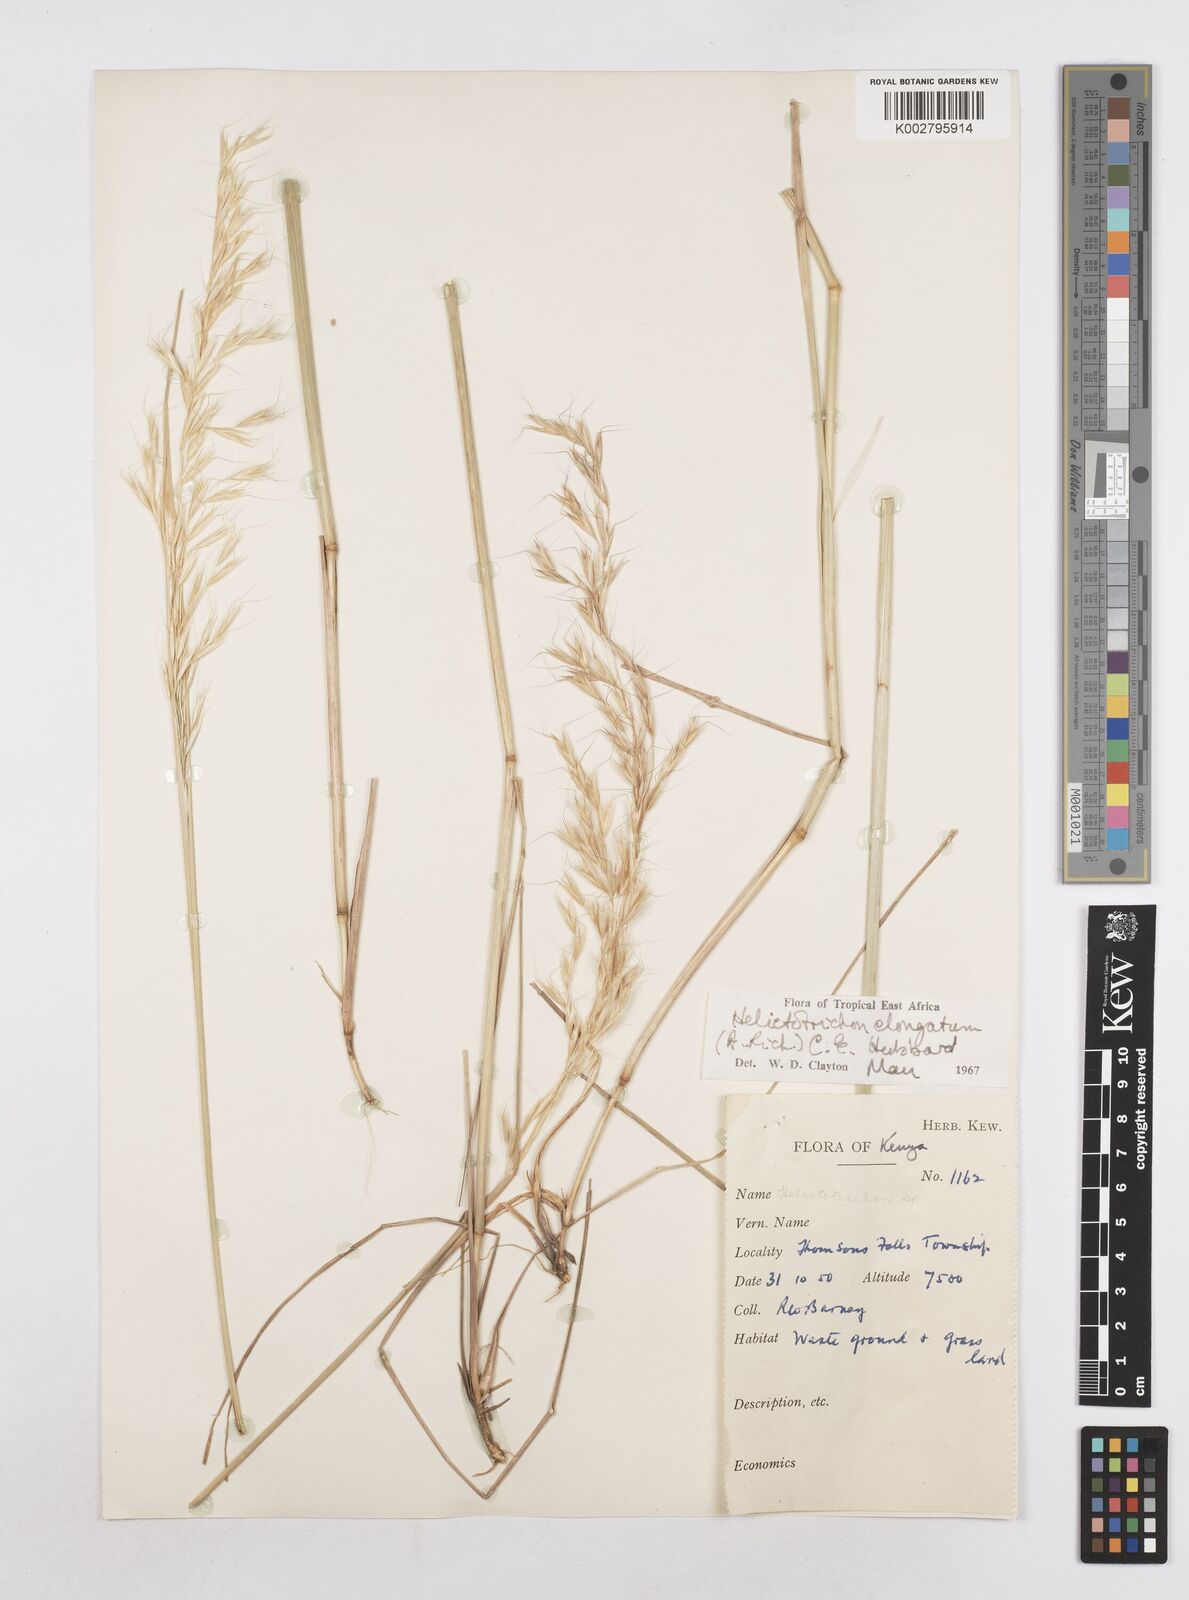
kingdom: Plantae
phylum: Tracheophyta
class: Liliopsida
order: Poales
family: Poaceae
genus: Trisetopsis
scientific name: Trisetopsis elongata
